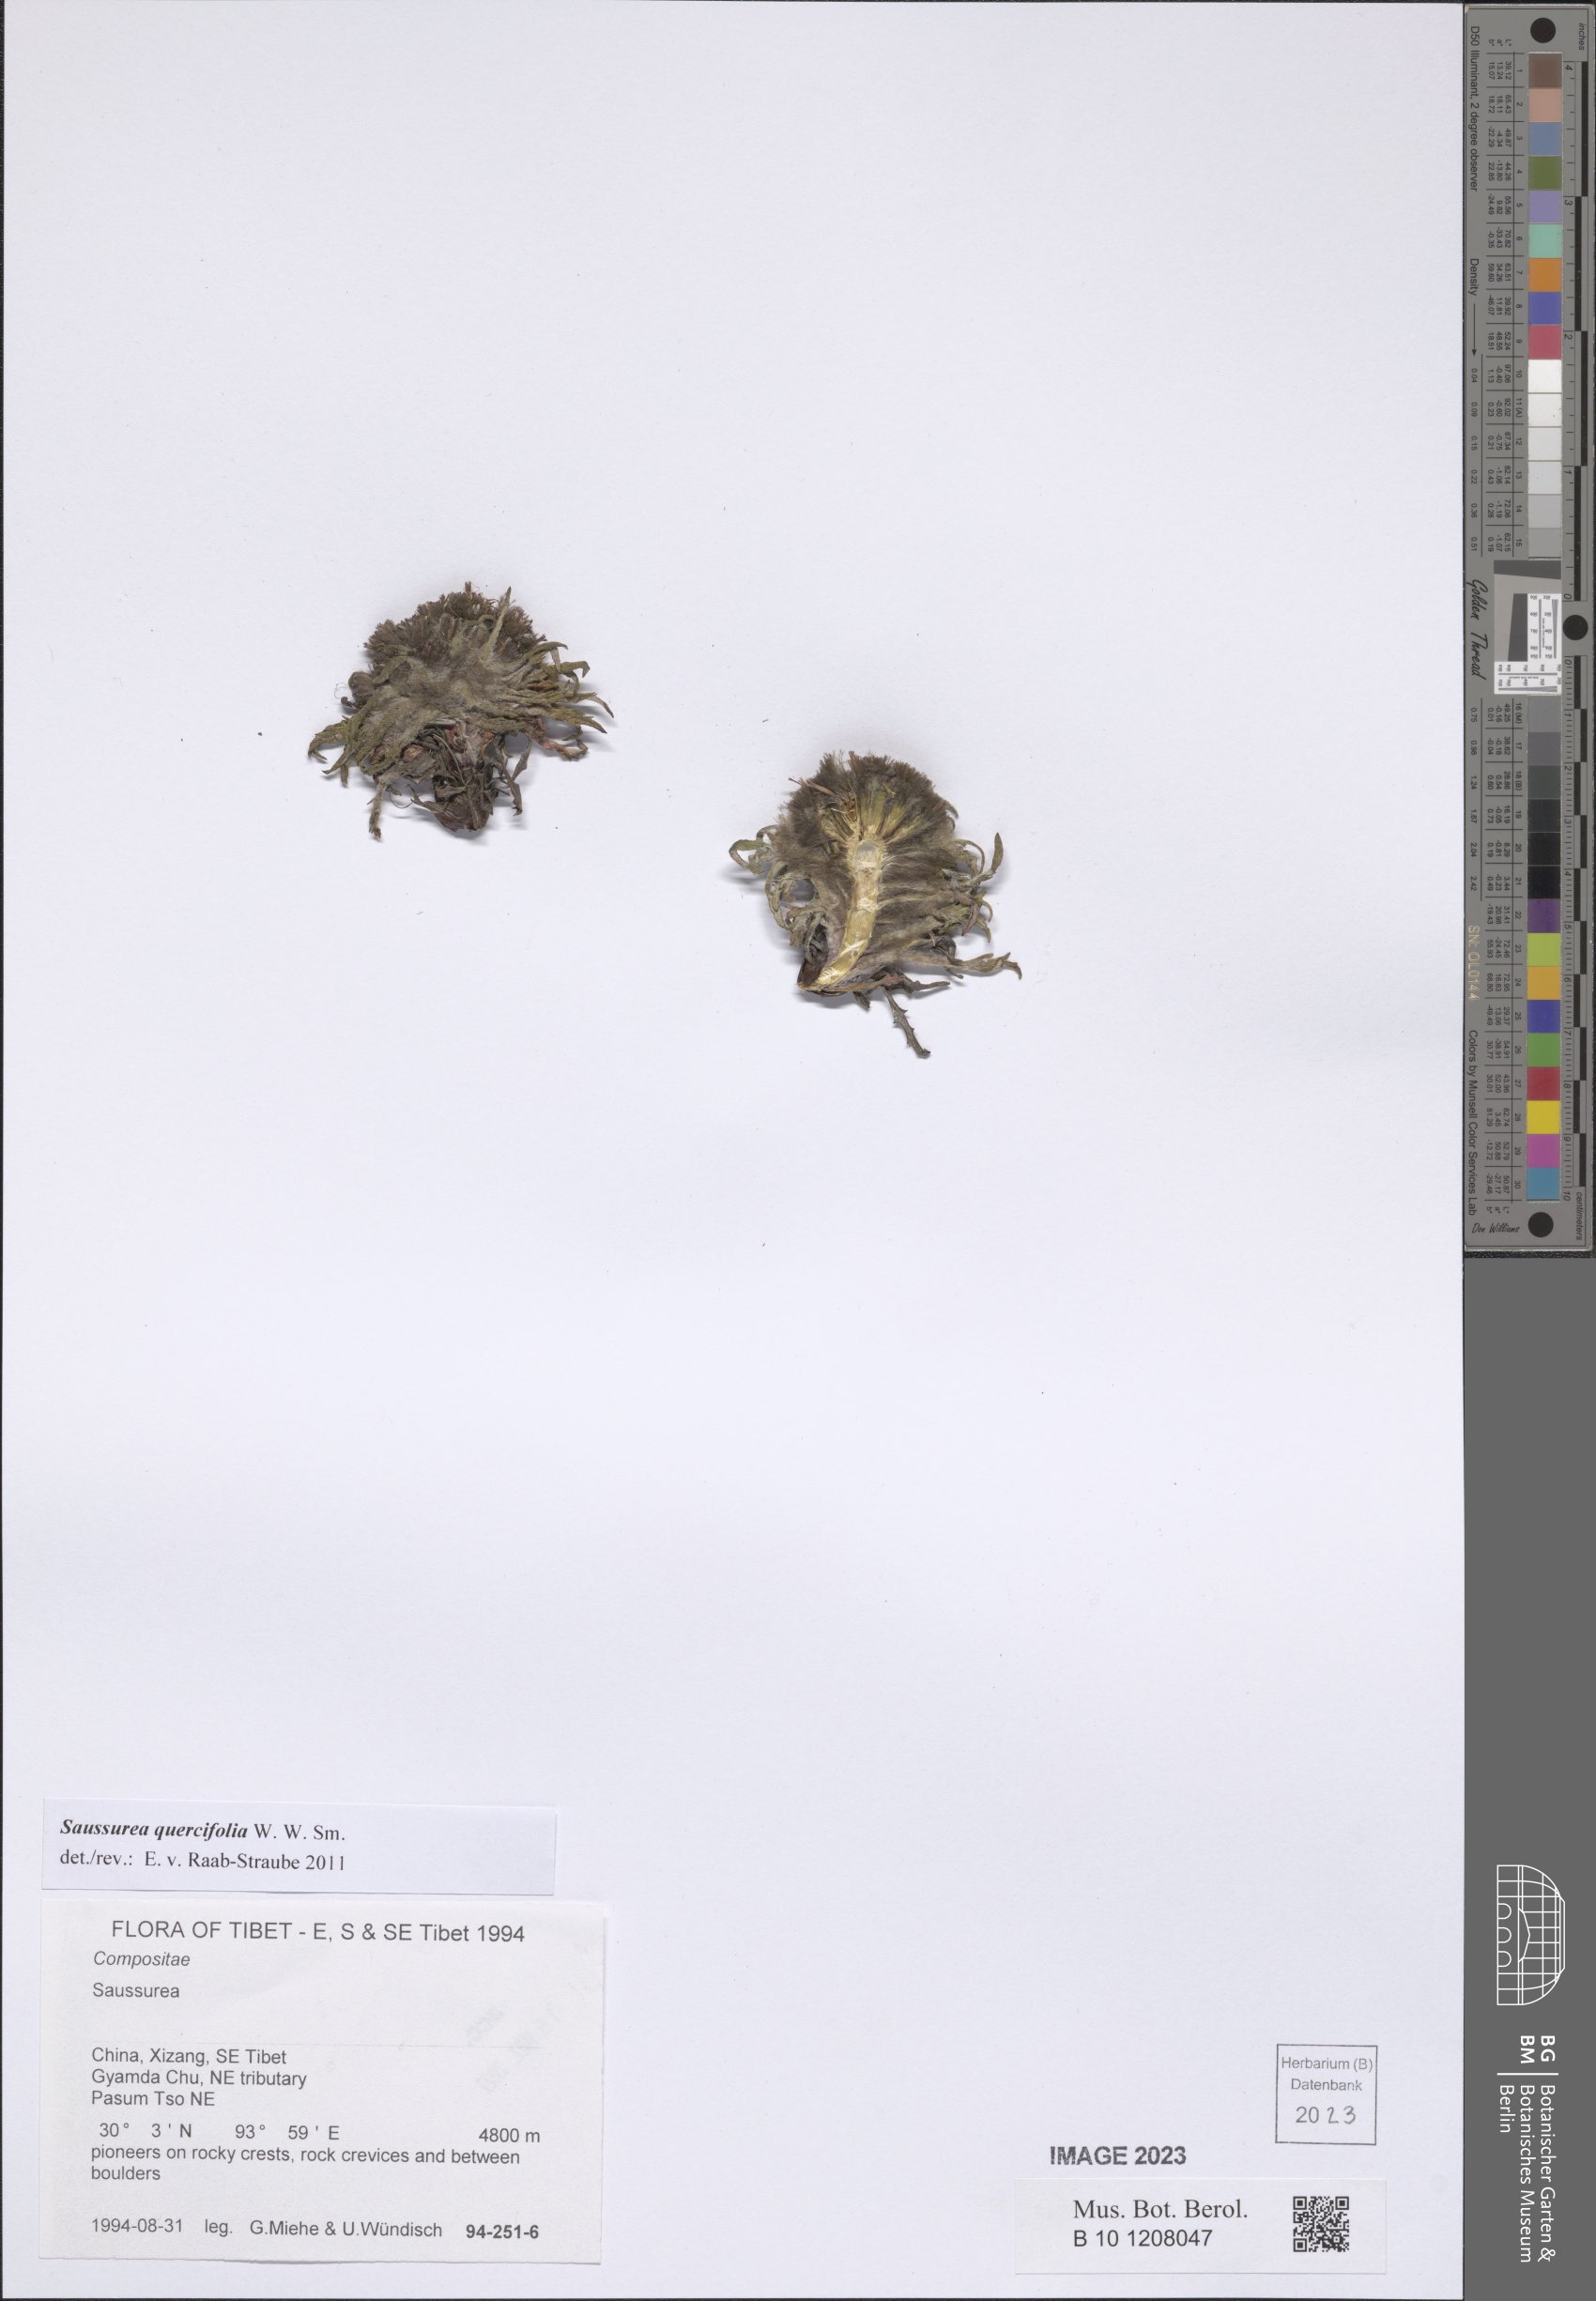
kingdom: Plantae
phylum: Tracheophyta
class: Magnoliopsida
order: Asterales
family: Asteraceae
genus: Saussurea
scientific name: Saussurea quercifolia
